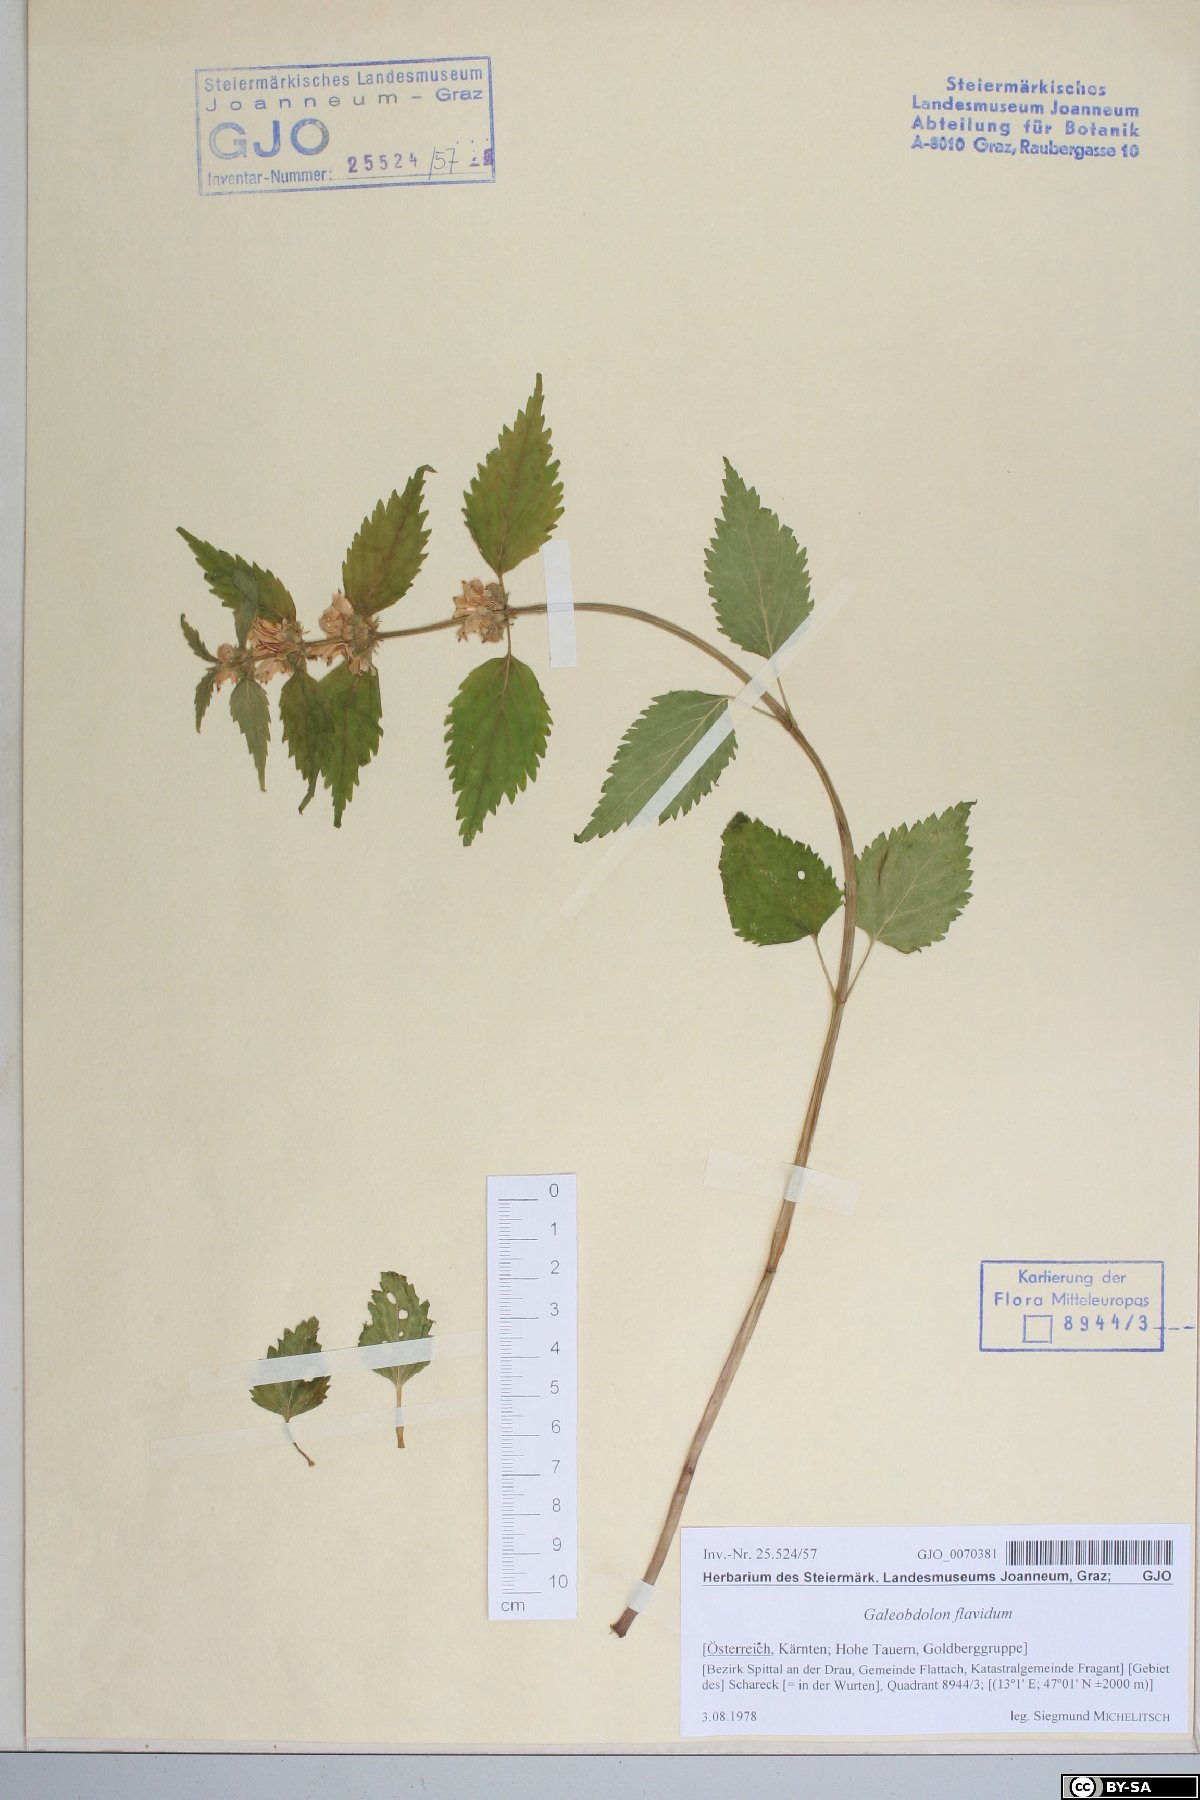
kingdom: Plantae
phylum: Tracheophyta
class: Magnoliopsida
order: Lamiales
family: Lamiaceae
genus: Lamium
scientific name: Lamium galeobdolon
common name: Yellow archangel
